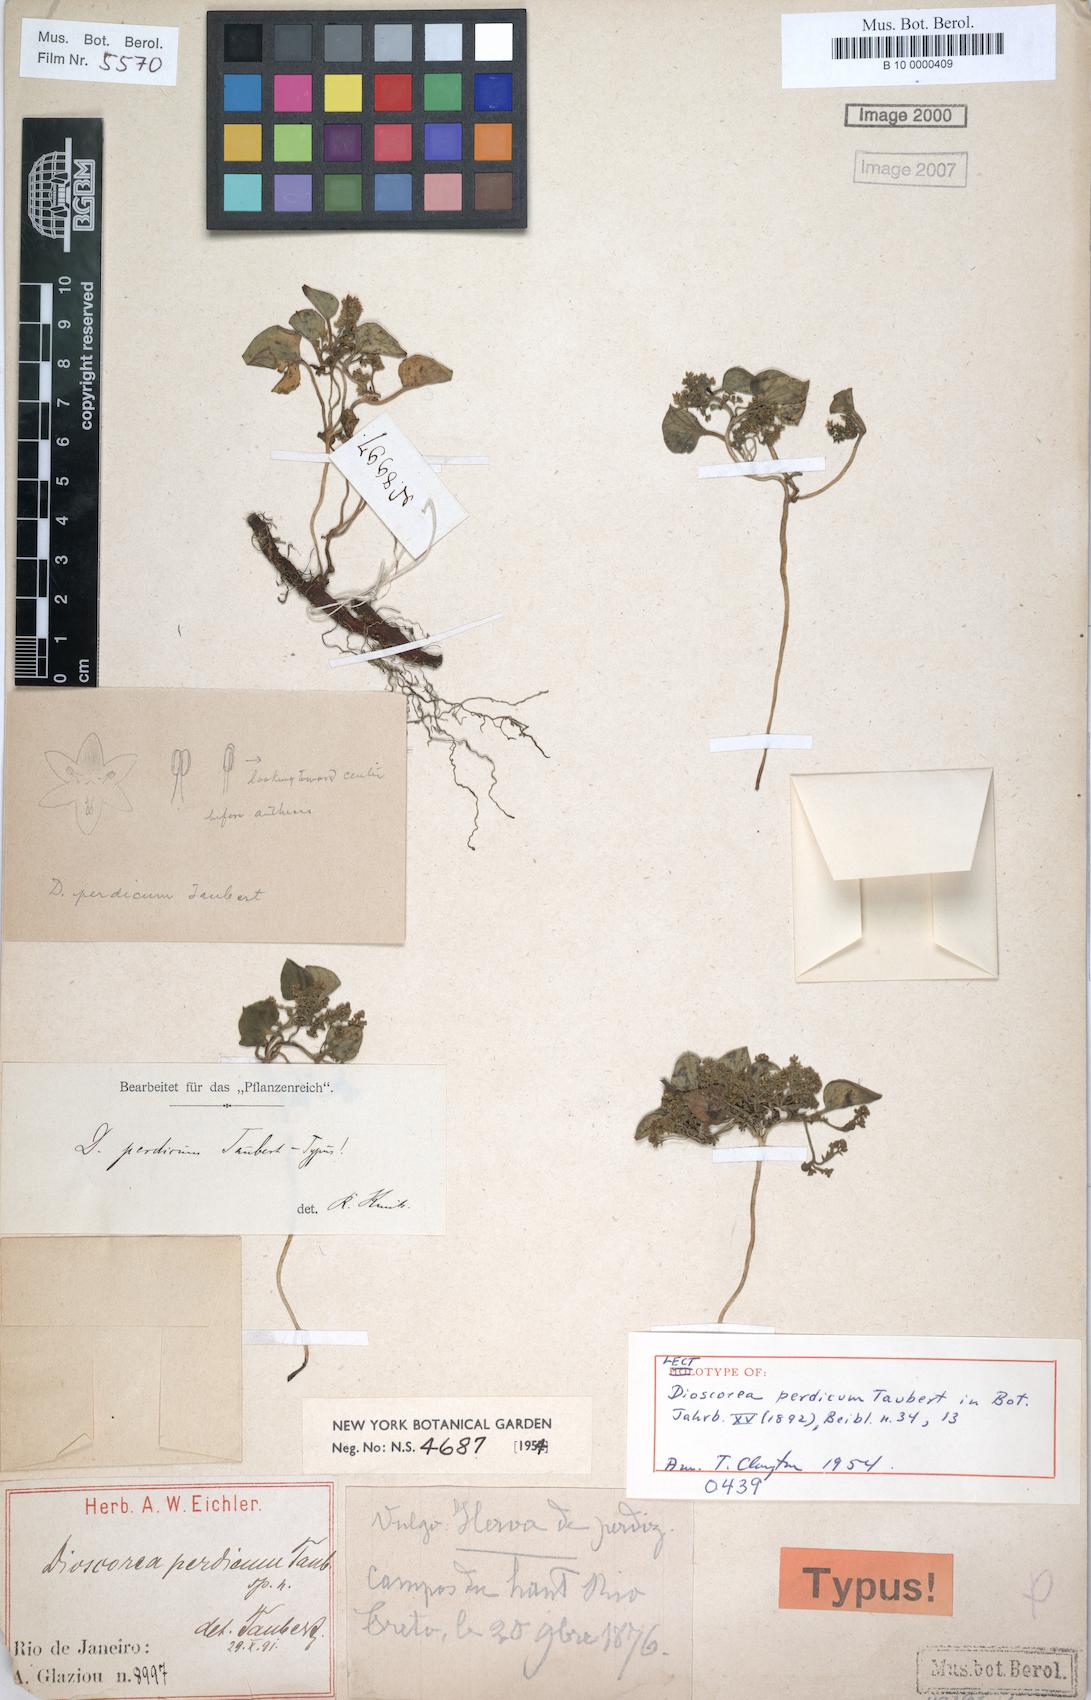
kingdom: Plantae
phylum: Tracheophyta
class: Liliopsida
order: Dioscoreales
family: Dioscoreaceae
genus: Dioscorea
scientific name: Dioscorea perdicum
